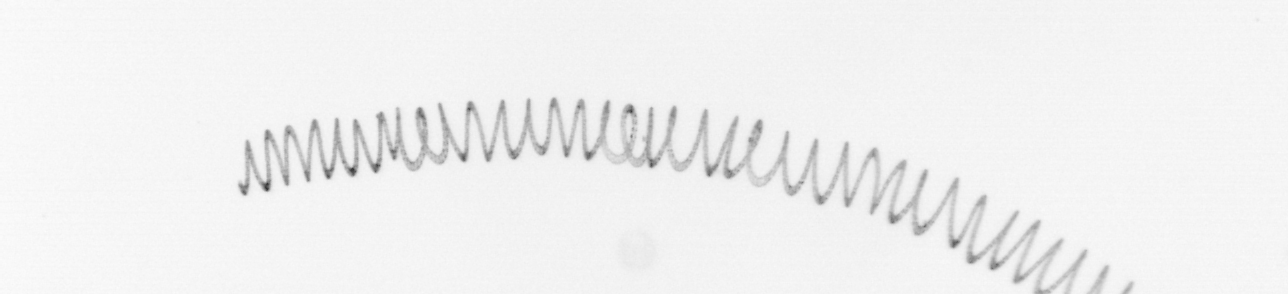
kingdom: Chromista
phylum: Ochrophyta
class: Bacillariophyceae
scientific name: Bacillariophyceae
